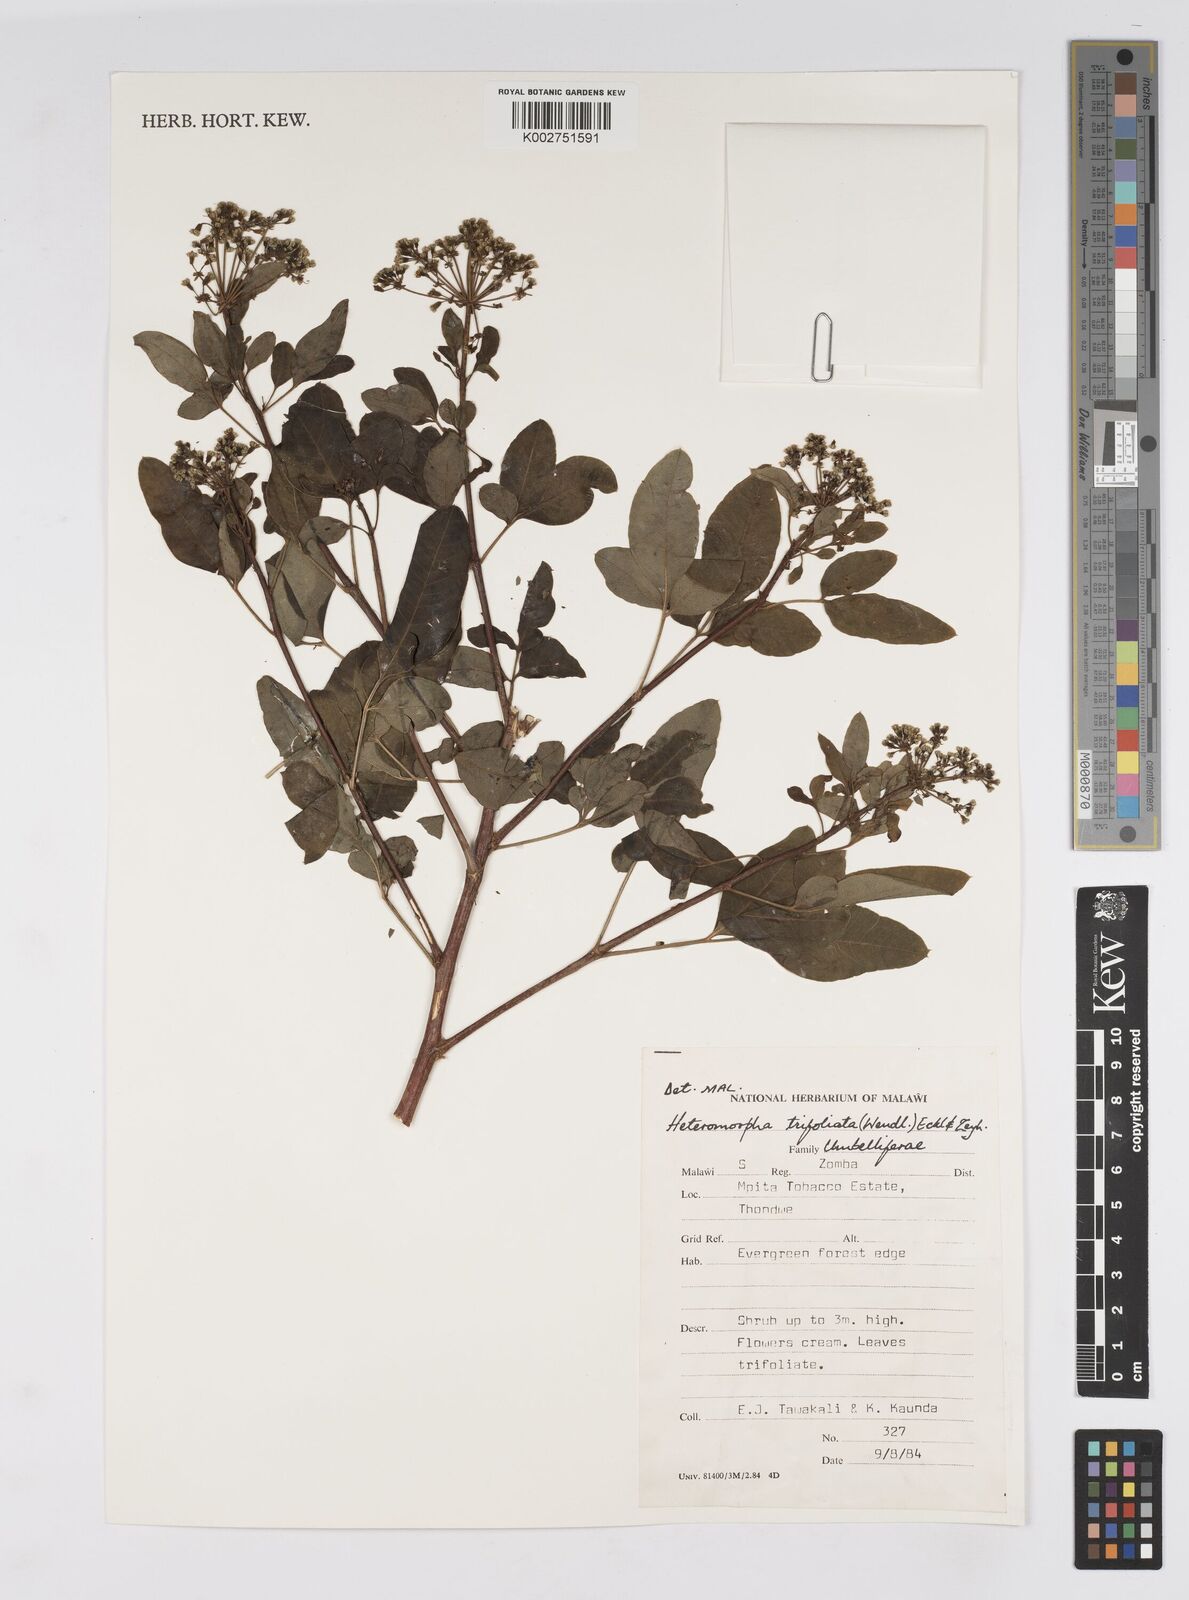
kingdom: Plantae
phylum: Tracheophyta
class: Magnoliopsida
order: Apiales
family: Apiaceae
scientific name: Apiaceae
